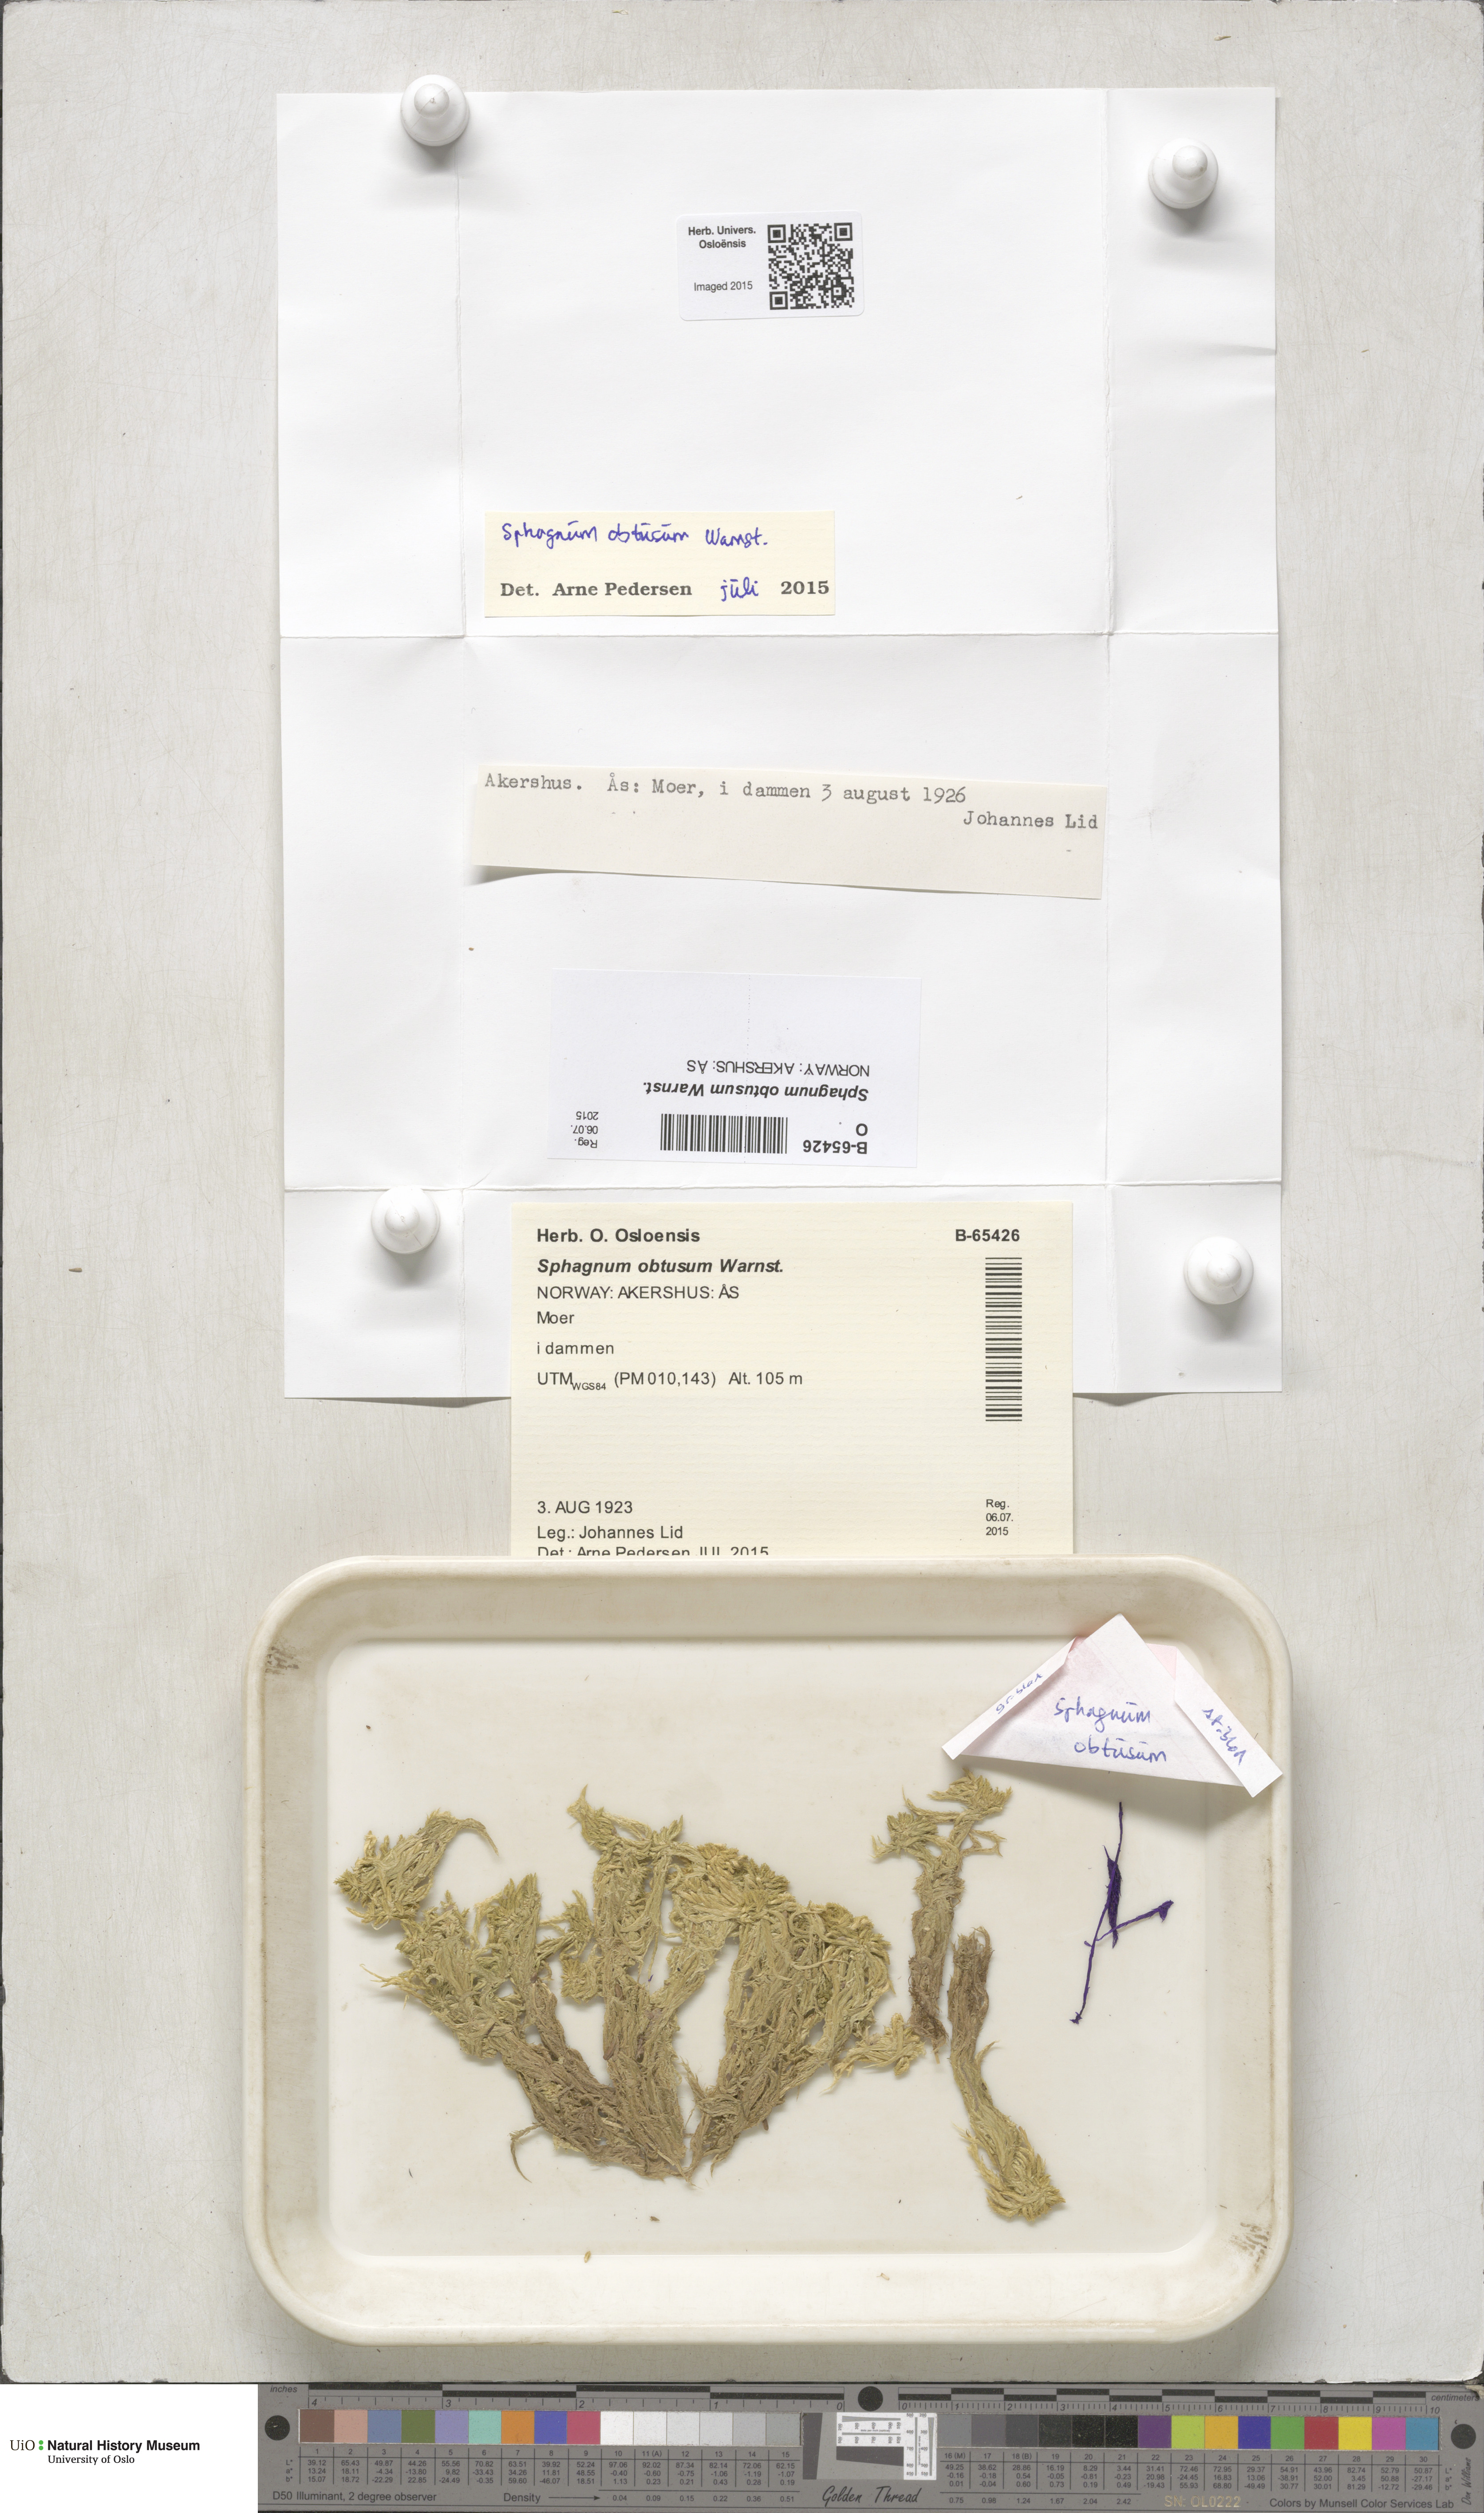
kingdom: Plantae
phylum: Bryophyta
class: Sphagnopsida
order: Sphagnales
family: Sphagnaceae
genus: Sphagnum
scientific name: Sphagnum obtusum
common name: Obtuse peat moss
